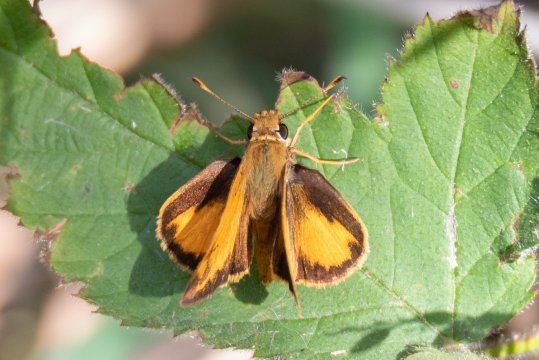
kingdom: Animalia
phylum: Arthropoda
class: Insecta
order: Lepidoptera
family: Hesperiidae
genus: Lon
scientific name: Lon zabulon
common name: Zabulon Skipper
